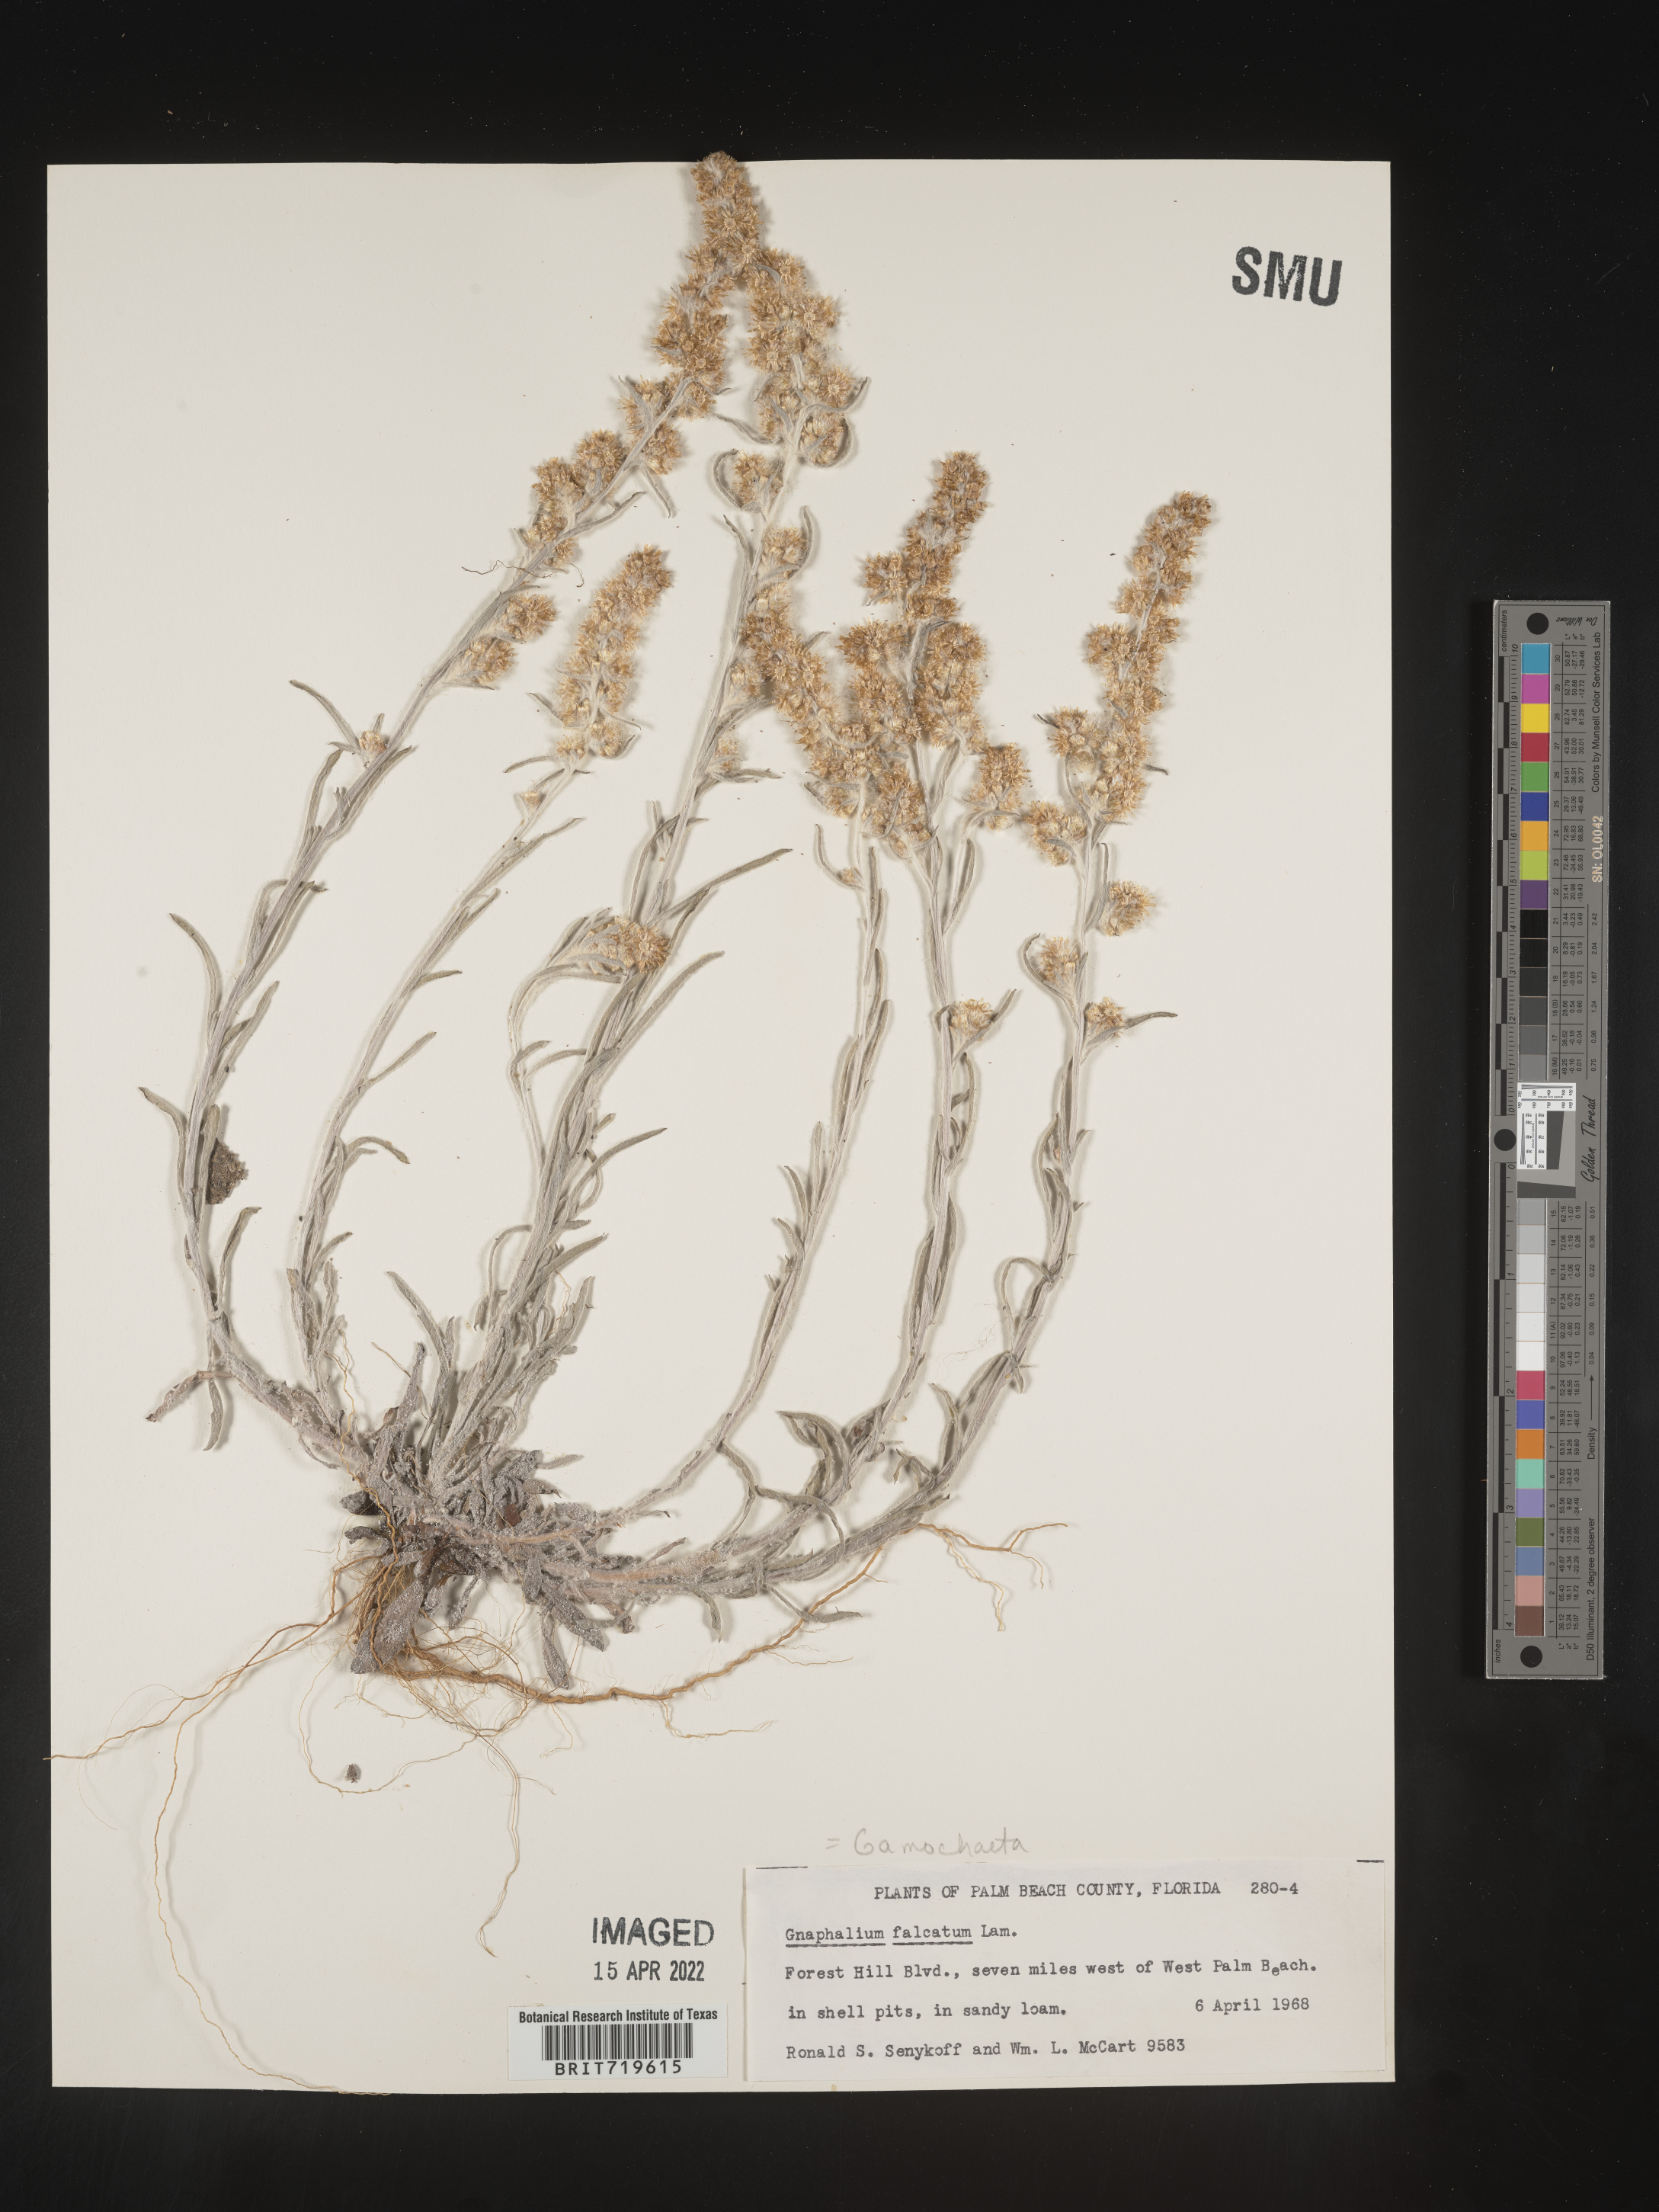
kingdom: Plantae
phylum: Tracheophyta
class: Magnoliopsida
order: Asterales
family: Asteraceae
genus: Gamochaeta
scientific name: Gamochaeta antillana
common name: Delicate everlasting
